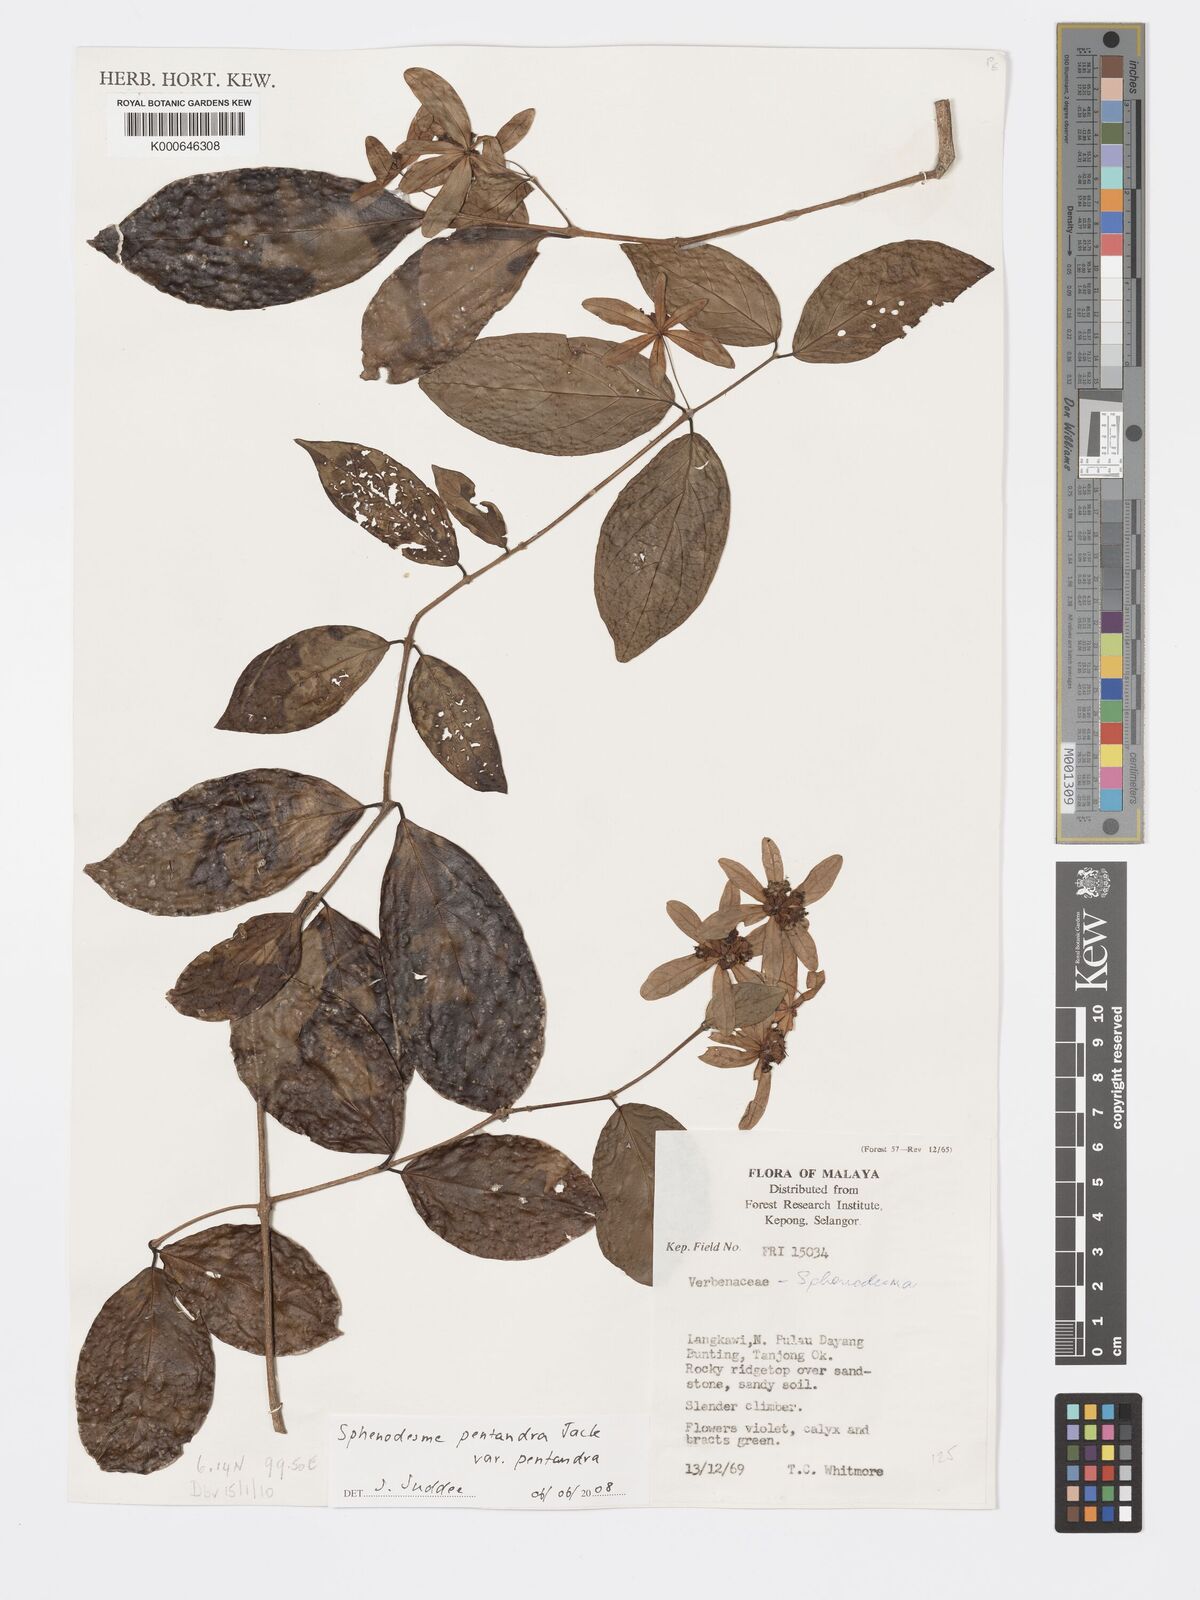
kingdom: Plantae
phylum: Tracheophyta
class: Magnoliopsida
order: Lamiales
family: Lamiaceae
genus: Sphenodesme
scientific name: Sphenodesme pentandra
